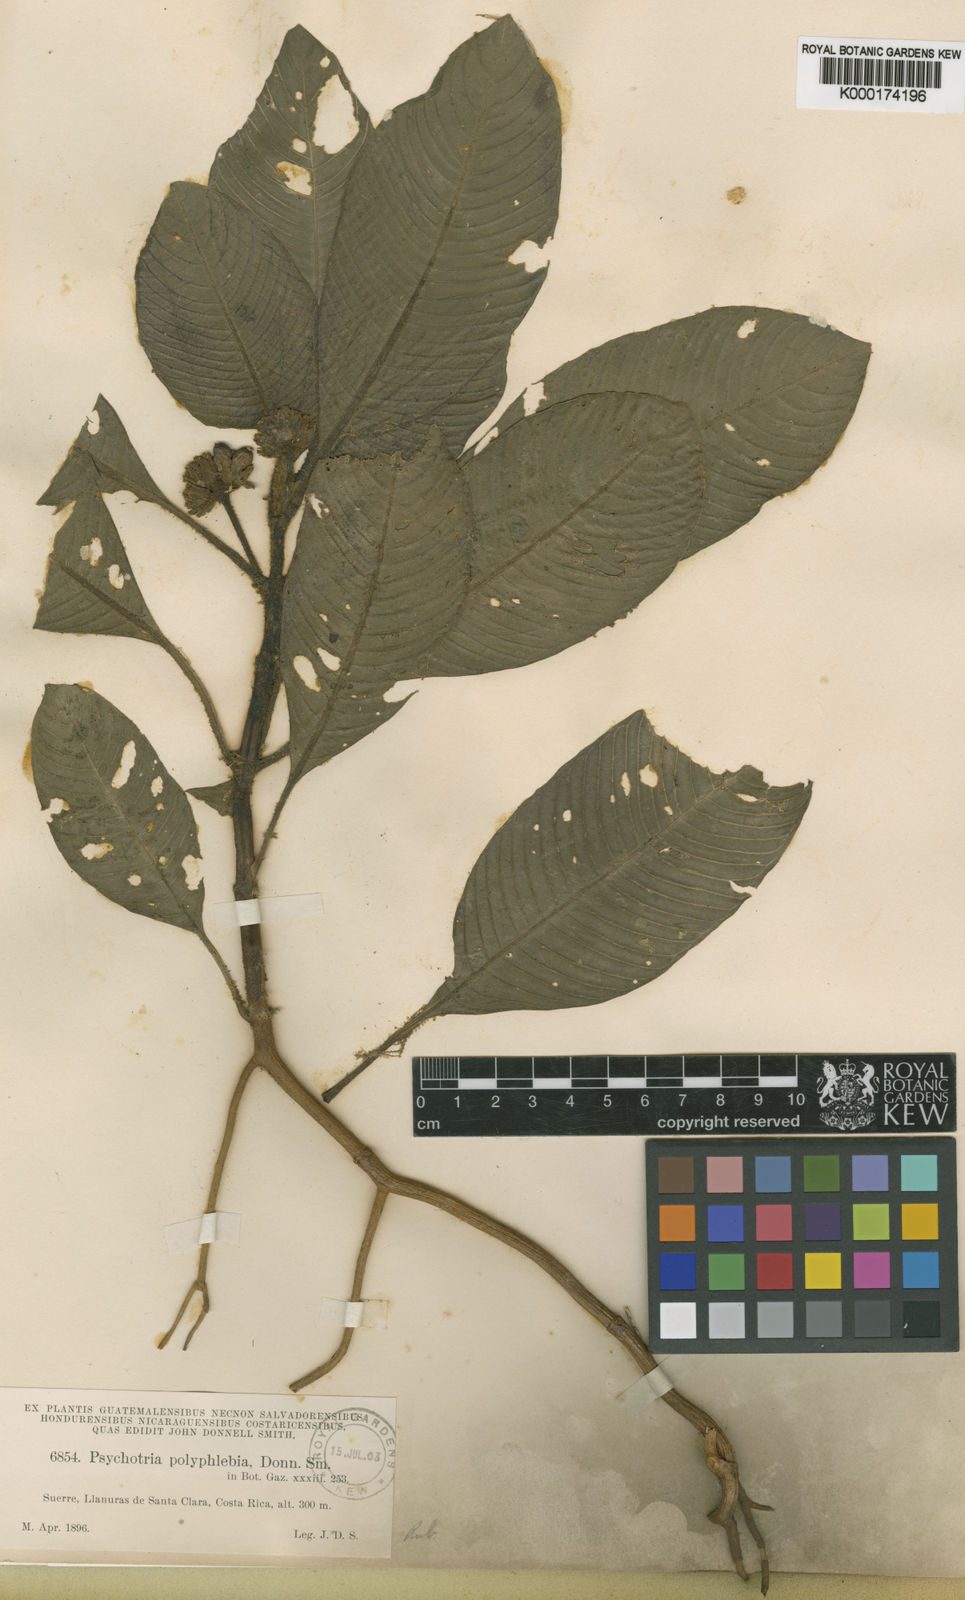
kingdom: Plantae
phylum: Tracheophyta
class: Magnoliopsida
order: Gentianales
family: Rubiaceae
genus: Notopleura
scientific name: Notopleura polyphlebia
